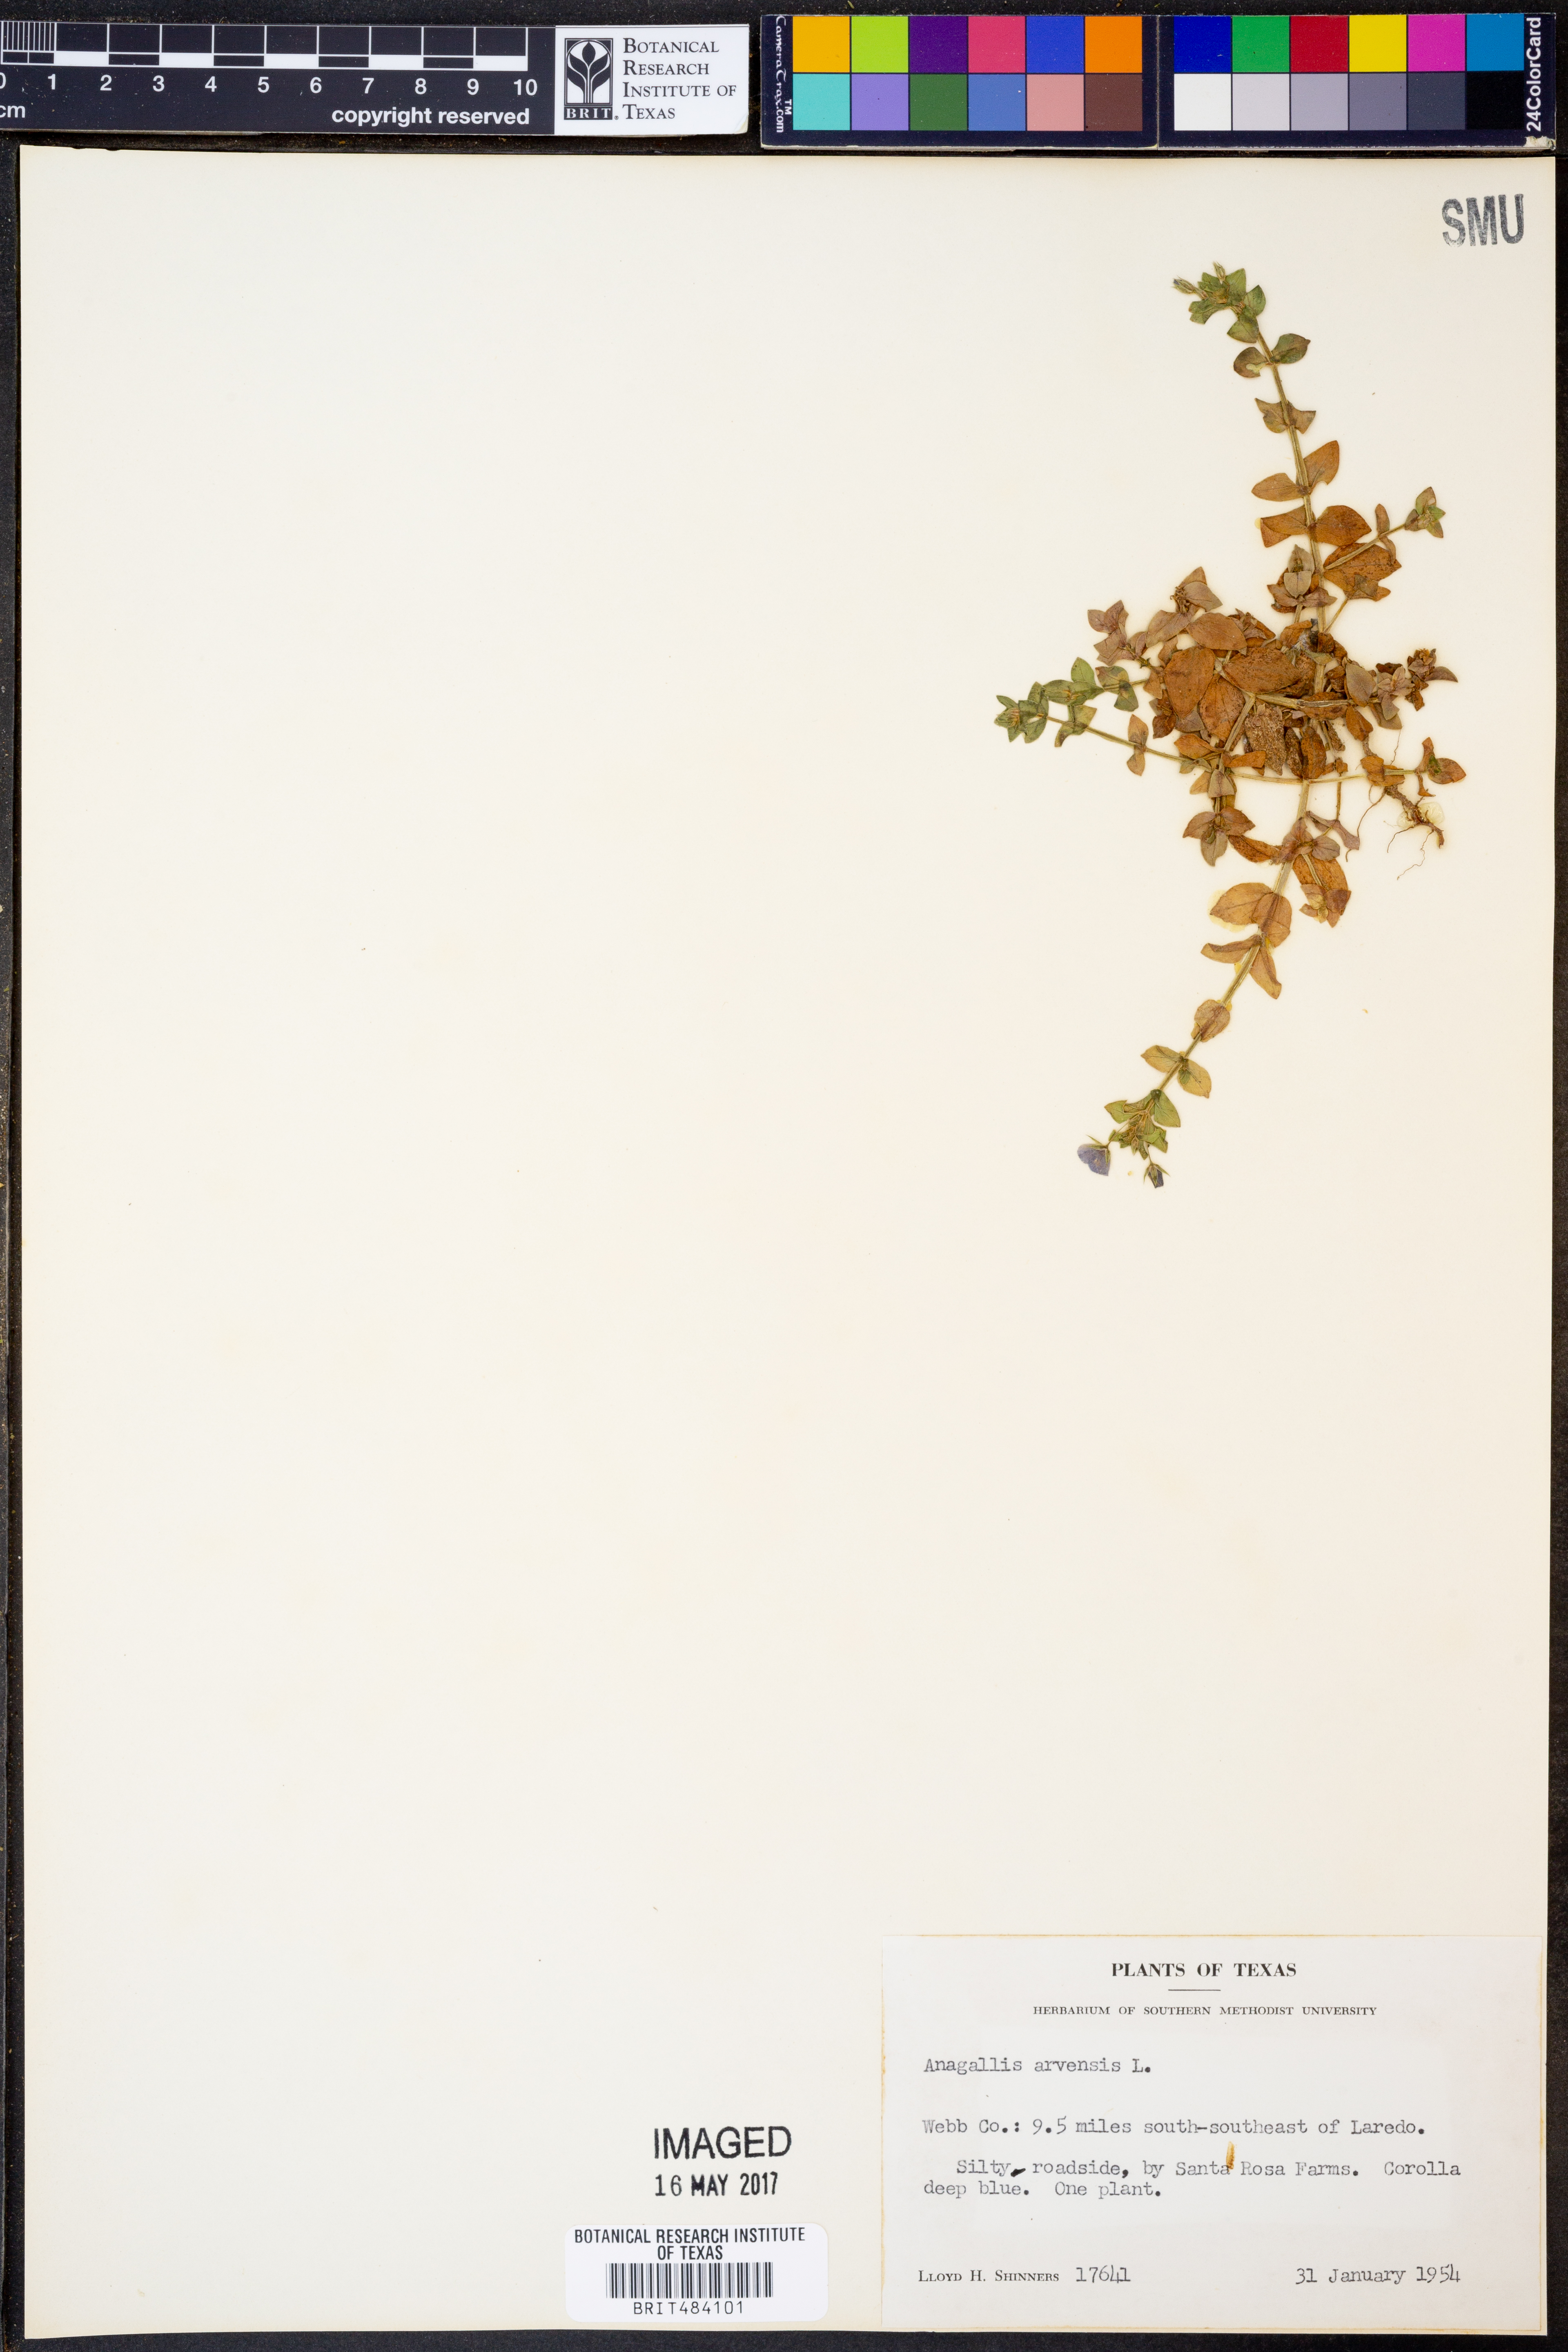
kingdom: Plantae
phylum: Tracheophyta
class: Magnoliopsida
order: Ericales
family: Primulaceae
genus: Lysimachia
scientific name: Lysimachia arvensis
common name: Scarlet pimpernel
